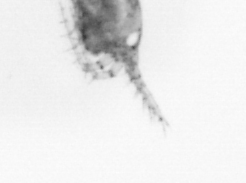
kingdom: Animalia
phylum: Arthropoda
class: Copepoda
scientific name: Copepoda
